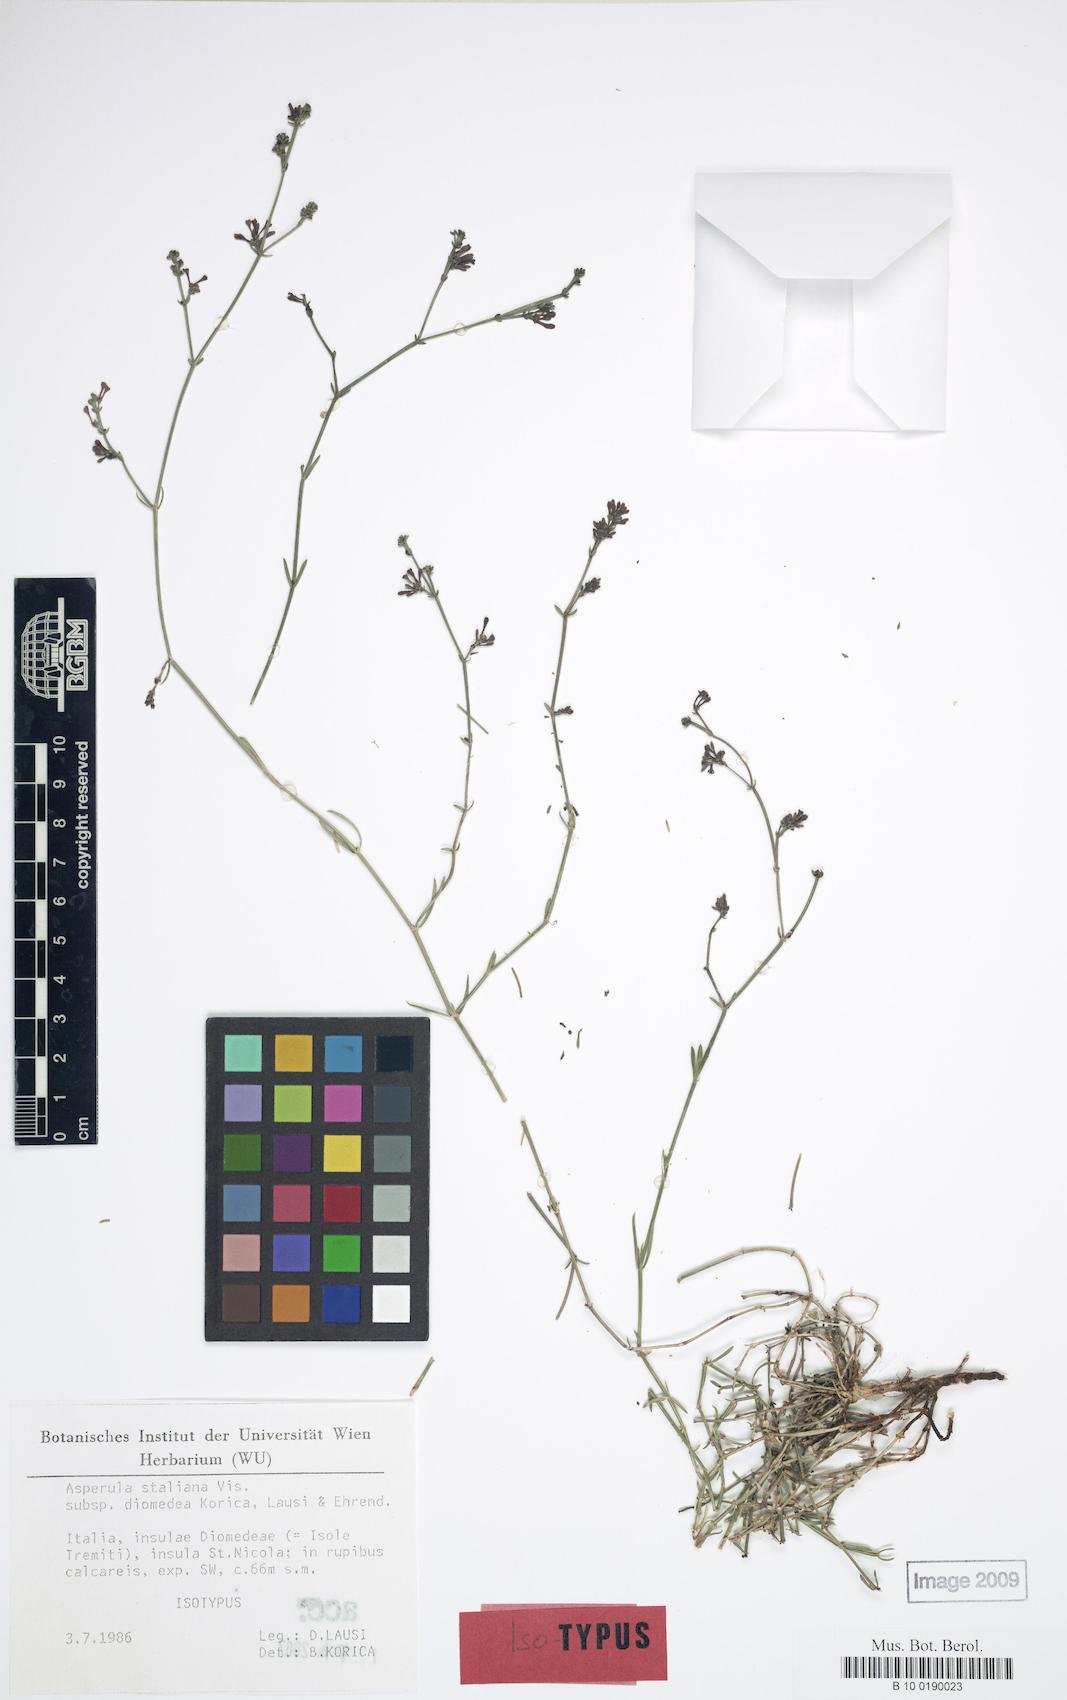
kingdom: Plantae
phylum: Tracheophyta
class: Magnoliopsida
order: Gentianales
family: Rubiaceae
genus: Cynanchica
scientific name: Cynanchica staliana
